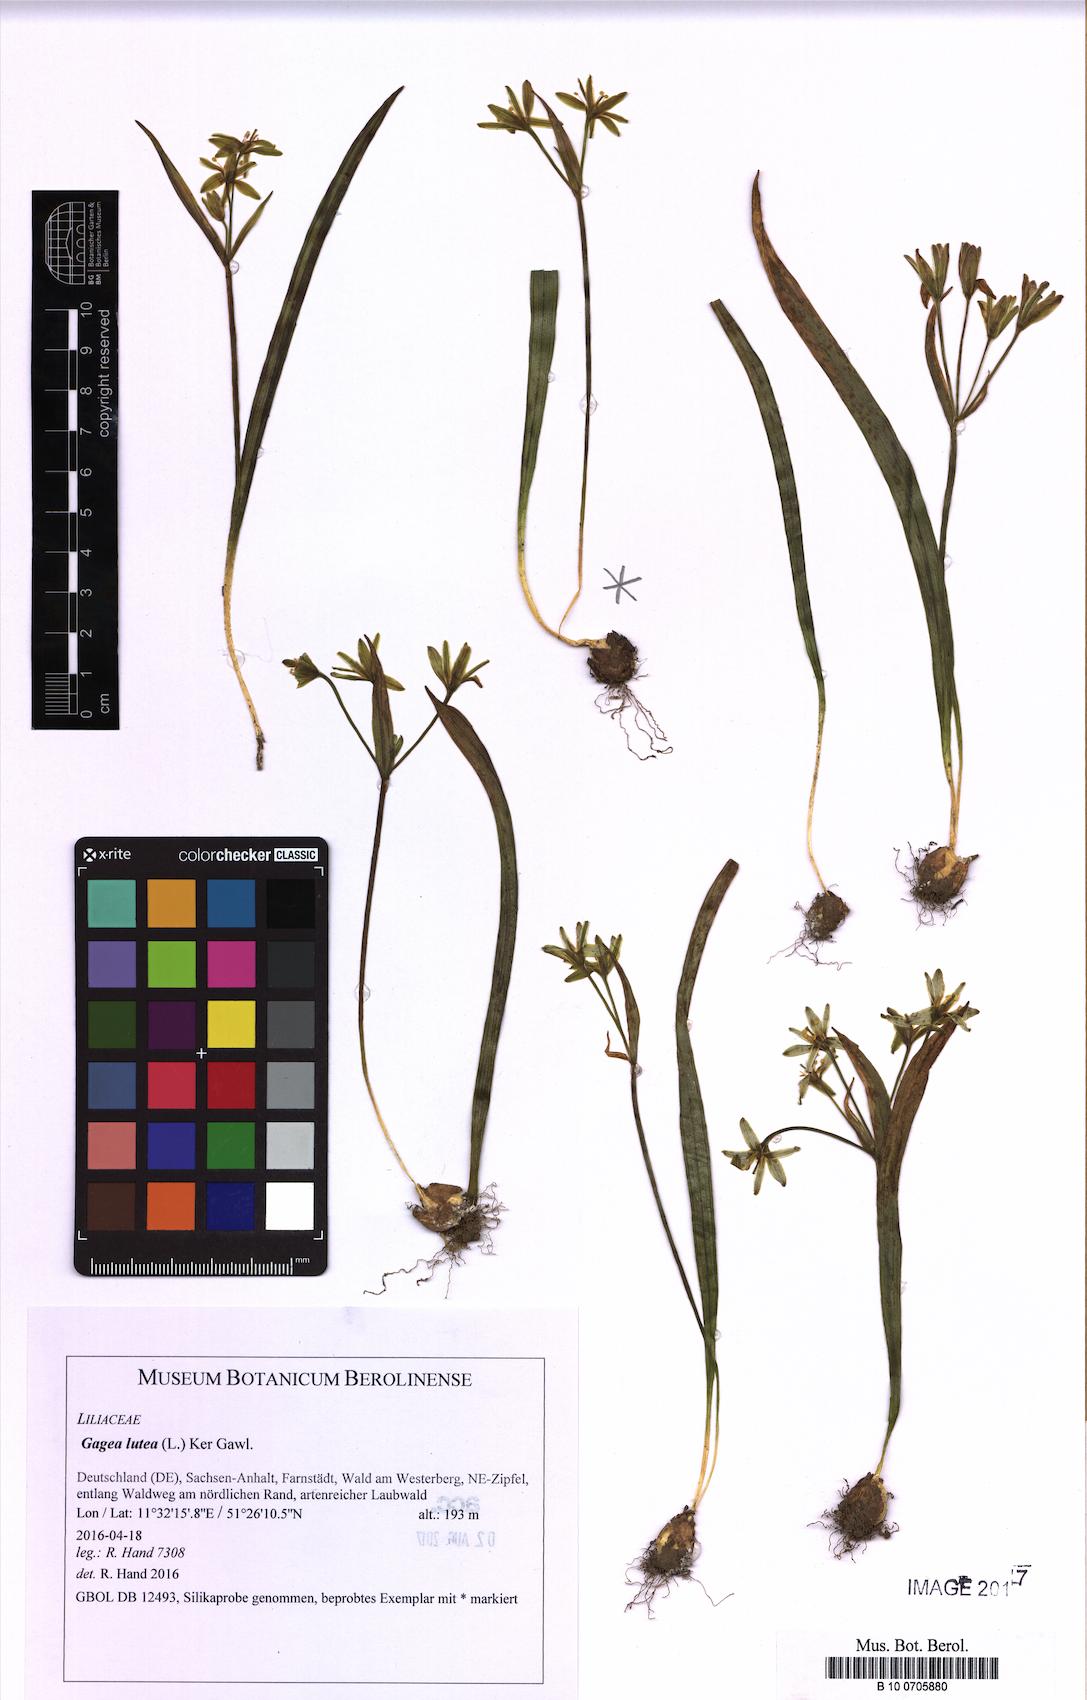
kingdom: Plantae
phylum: Tracheophyta
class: Liliopsida
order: Liliales
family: Liliaceae
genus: Gagea
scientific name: Gagea lutea
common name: Yellow star-of-bethlehem
